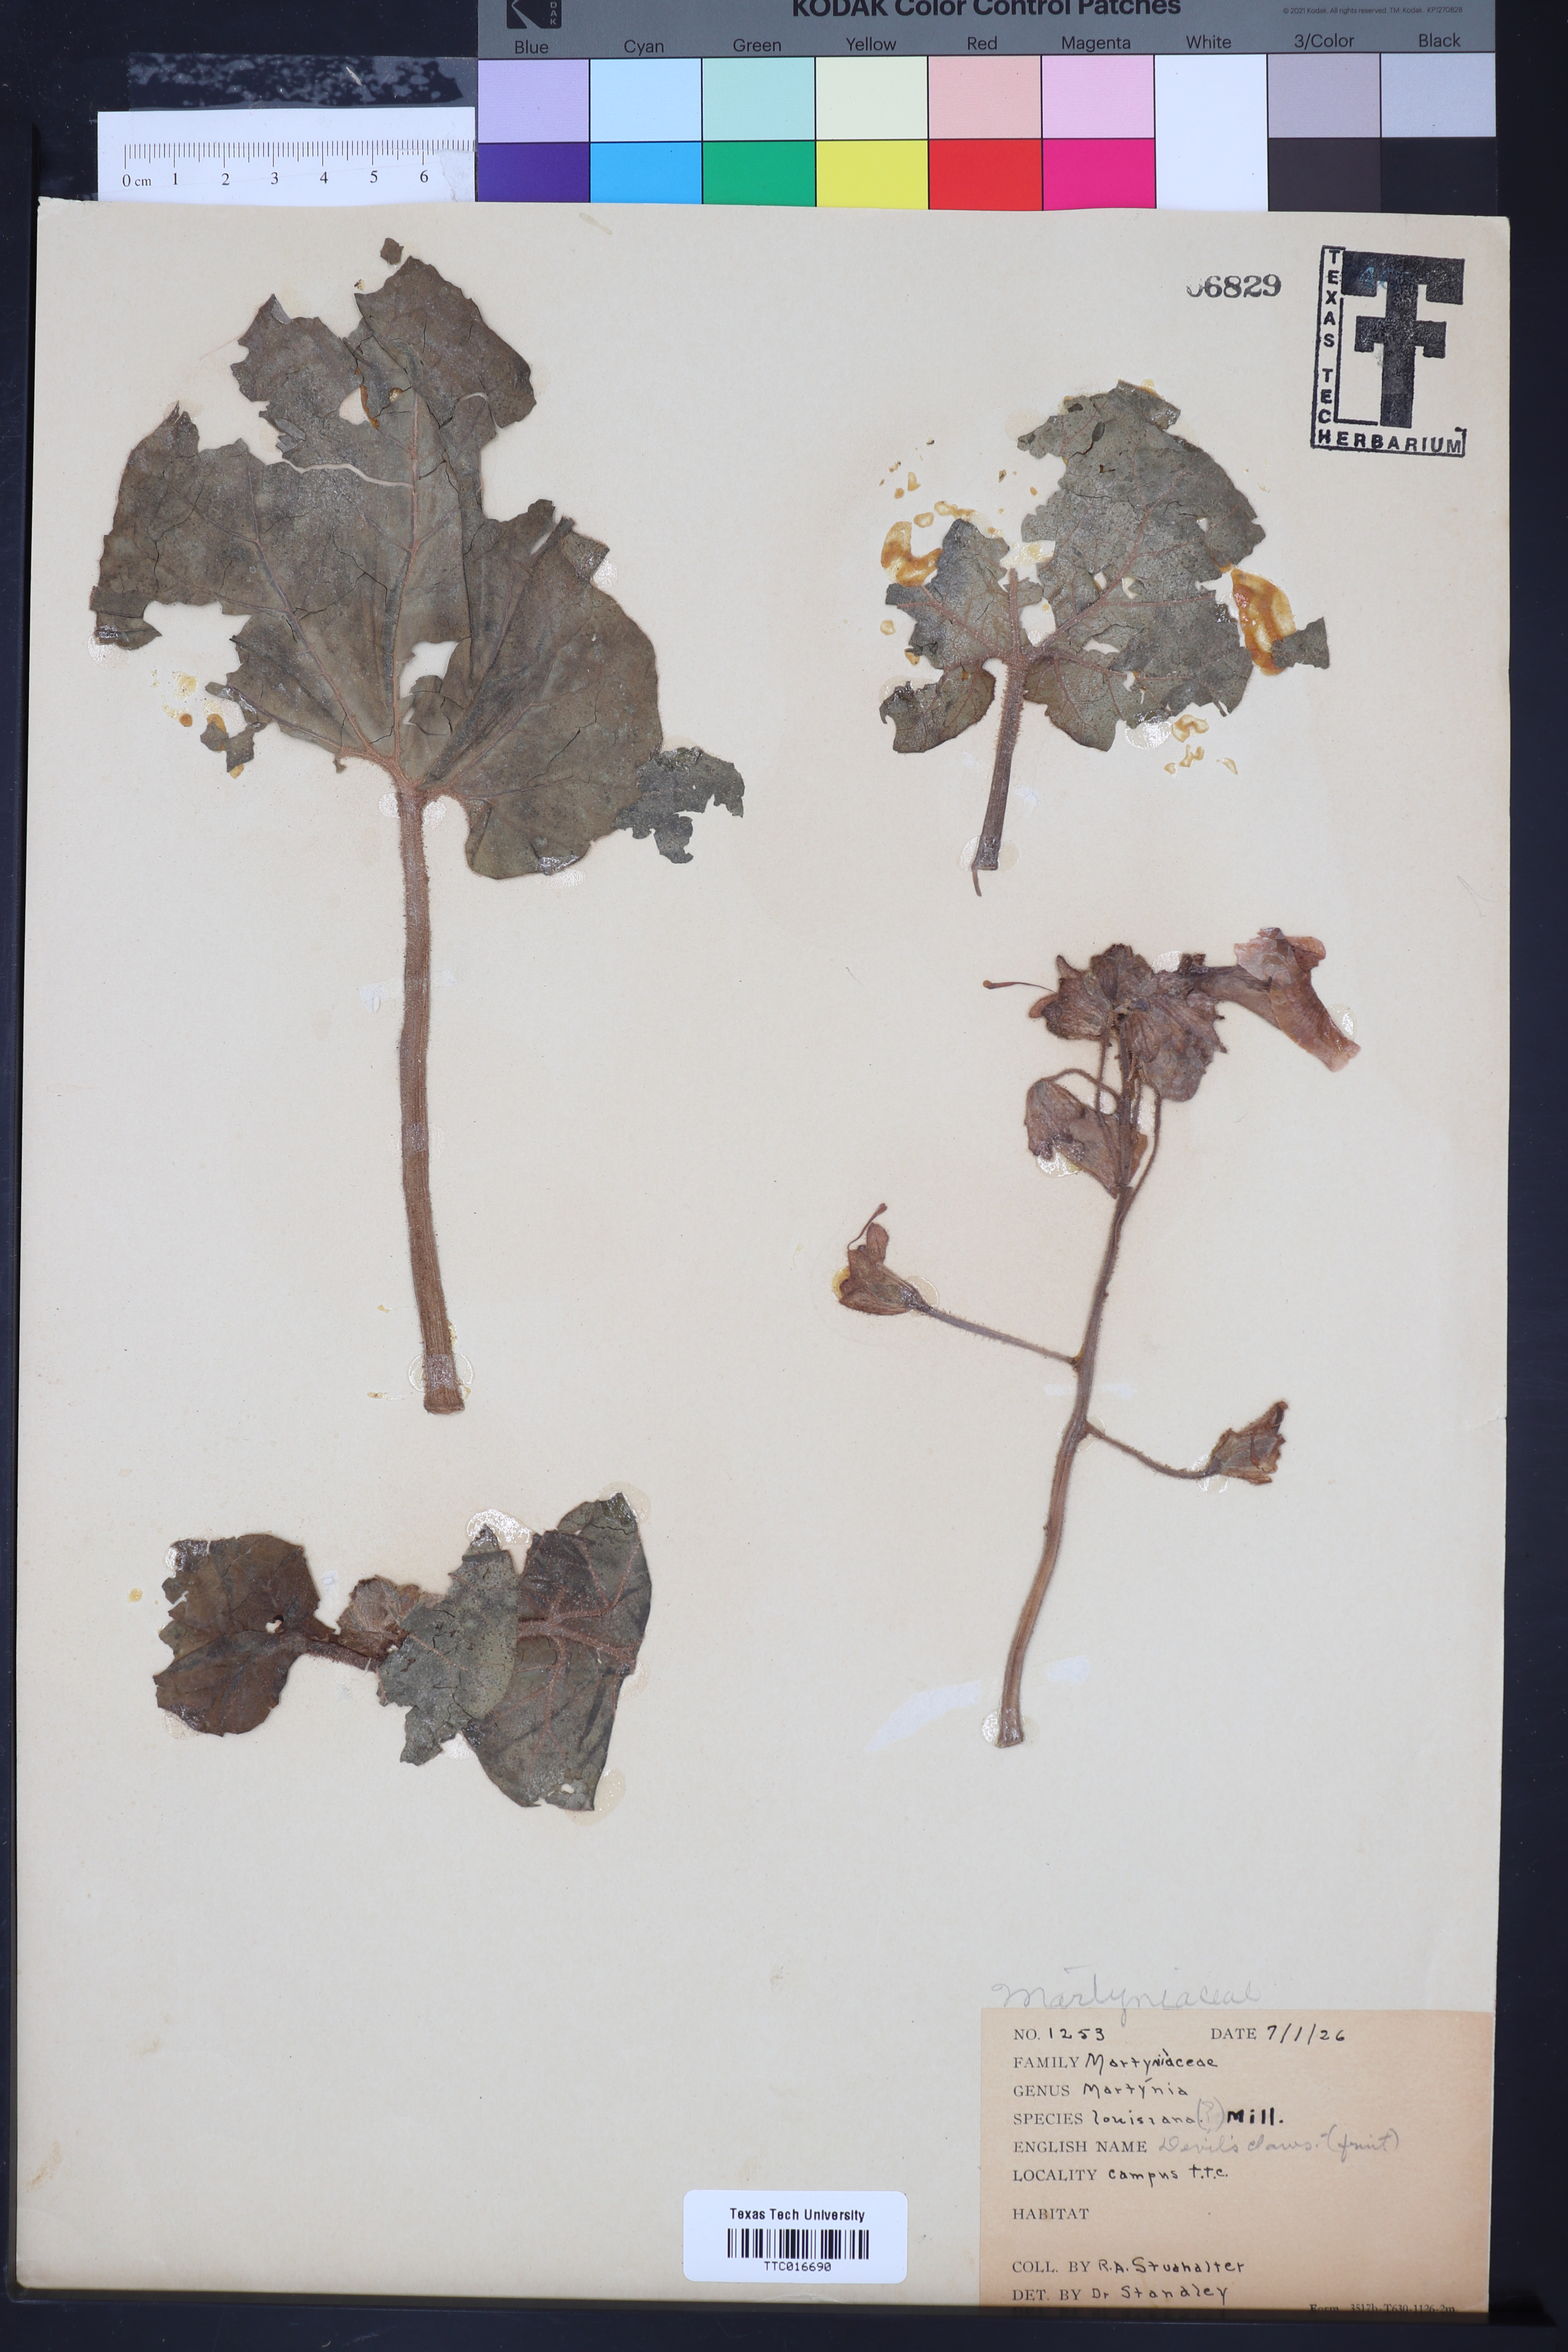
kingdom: Plantae
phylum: Tracheophyta
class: Magnoliopsida
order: Lamiales
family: Martyniaceae
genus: Proboscidea
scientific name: Proboscidea louisianica
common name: Elephant tusks
